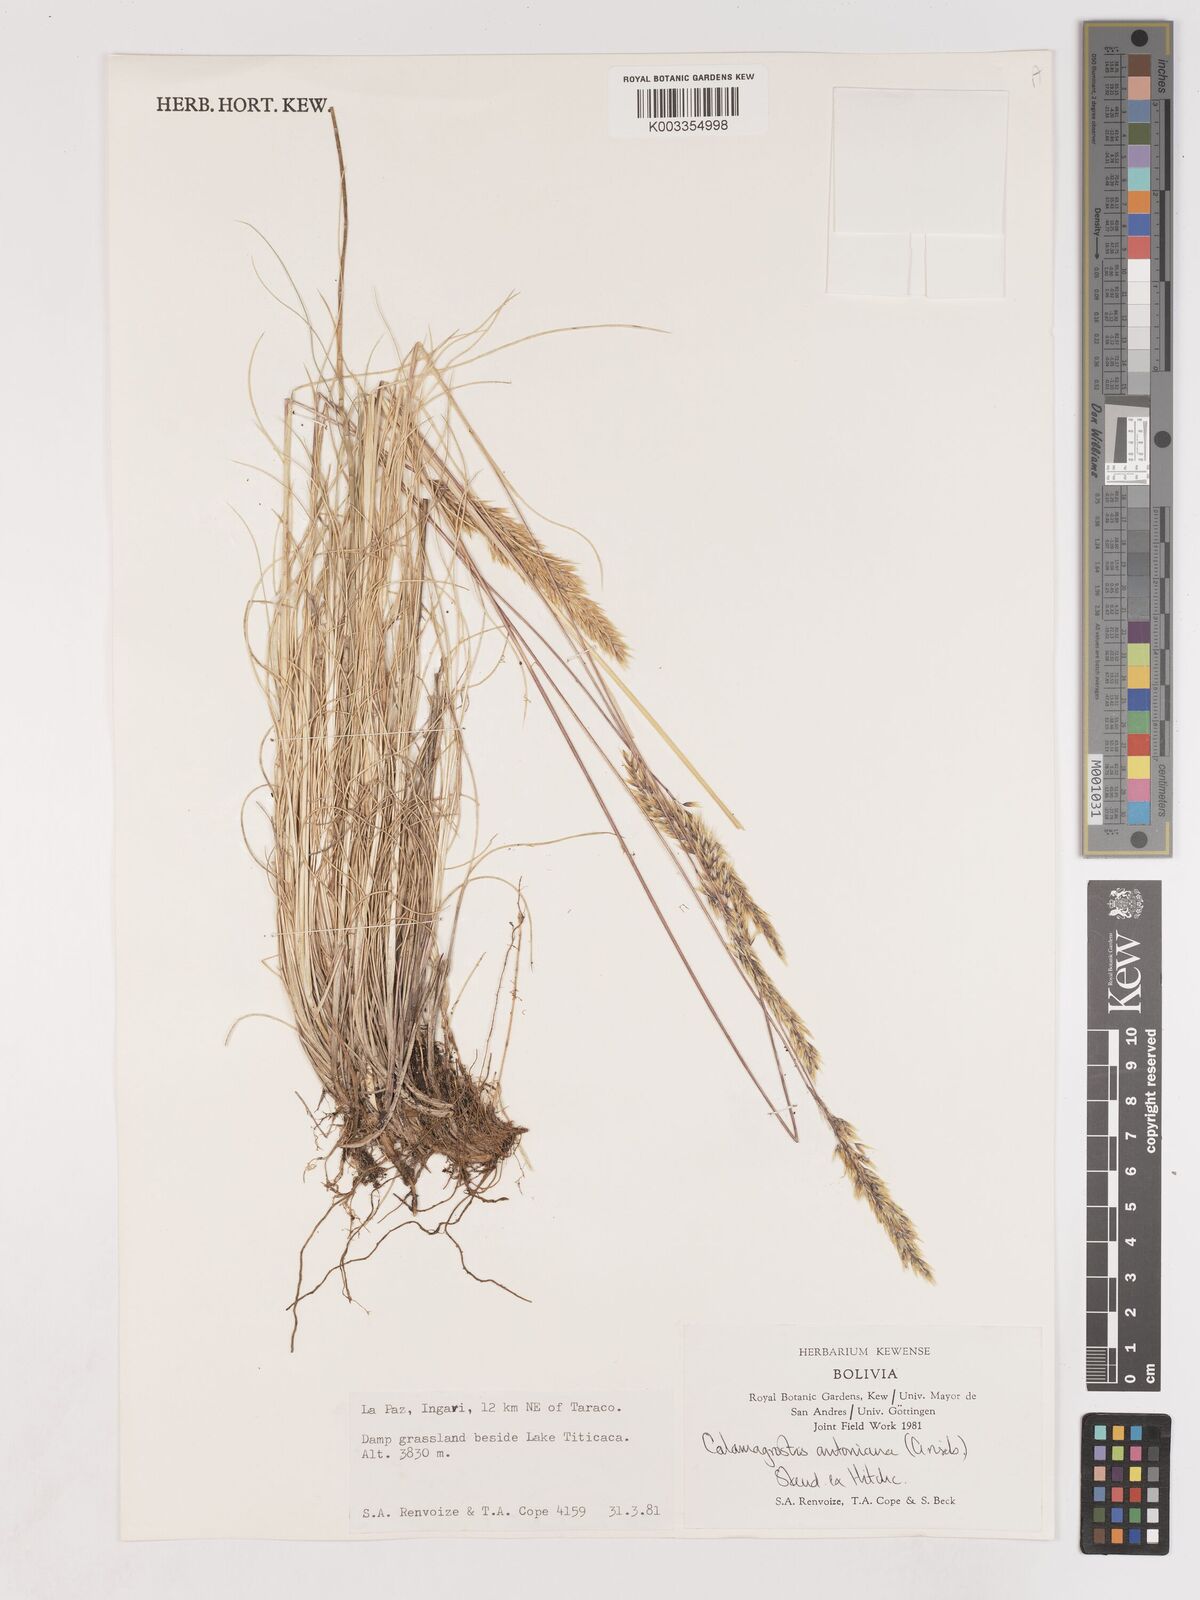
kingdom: Plantae
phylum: Tracheophyta
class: Liliopsida
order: Poales
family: Poaceae
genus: Cinnagrostis
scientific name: Cinnagrostis brevifolia
